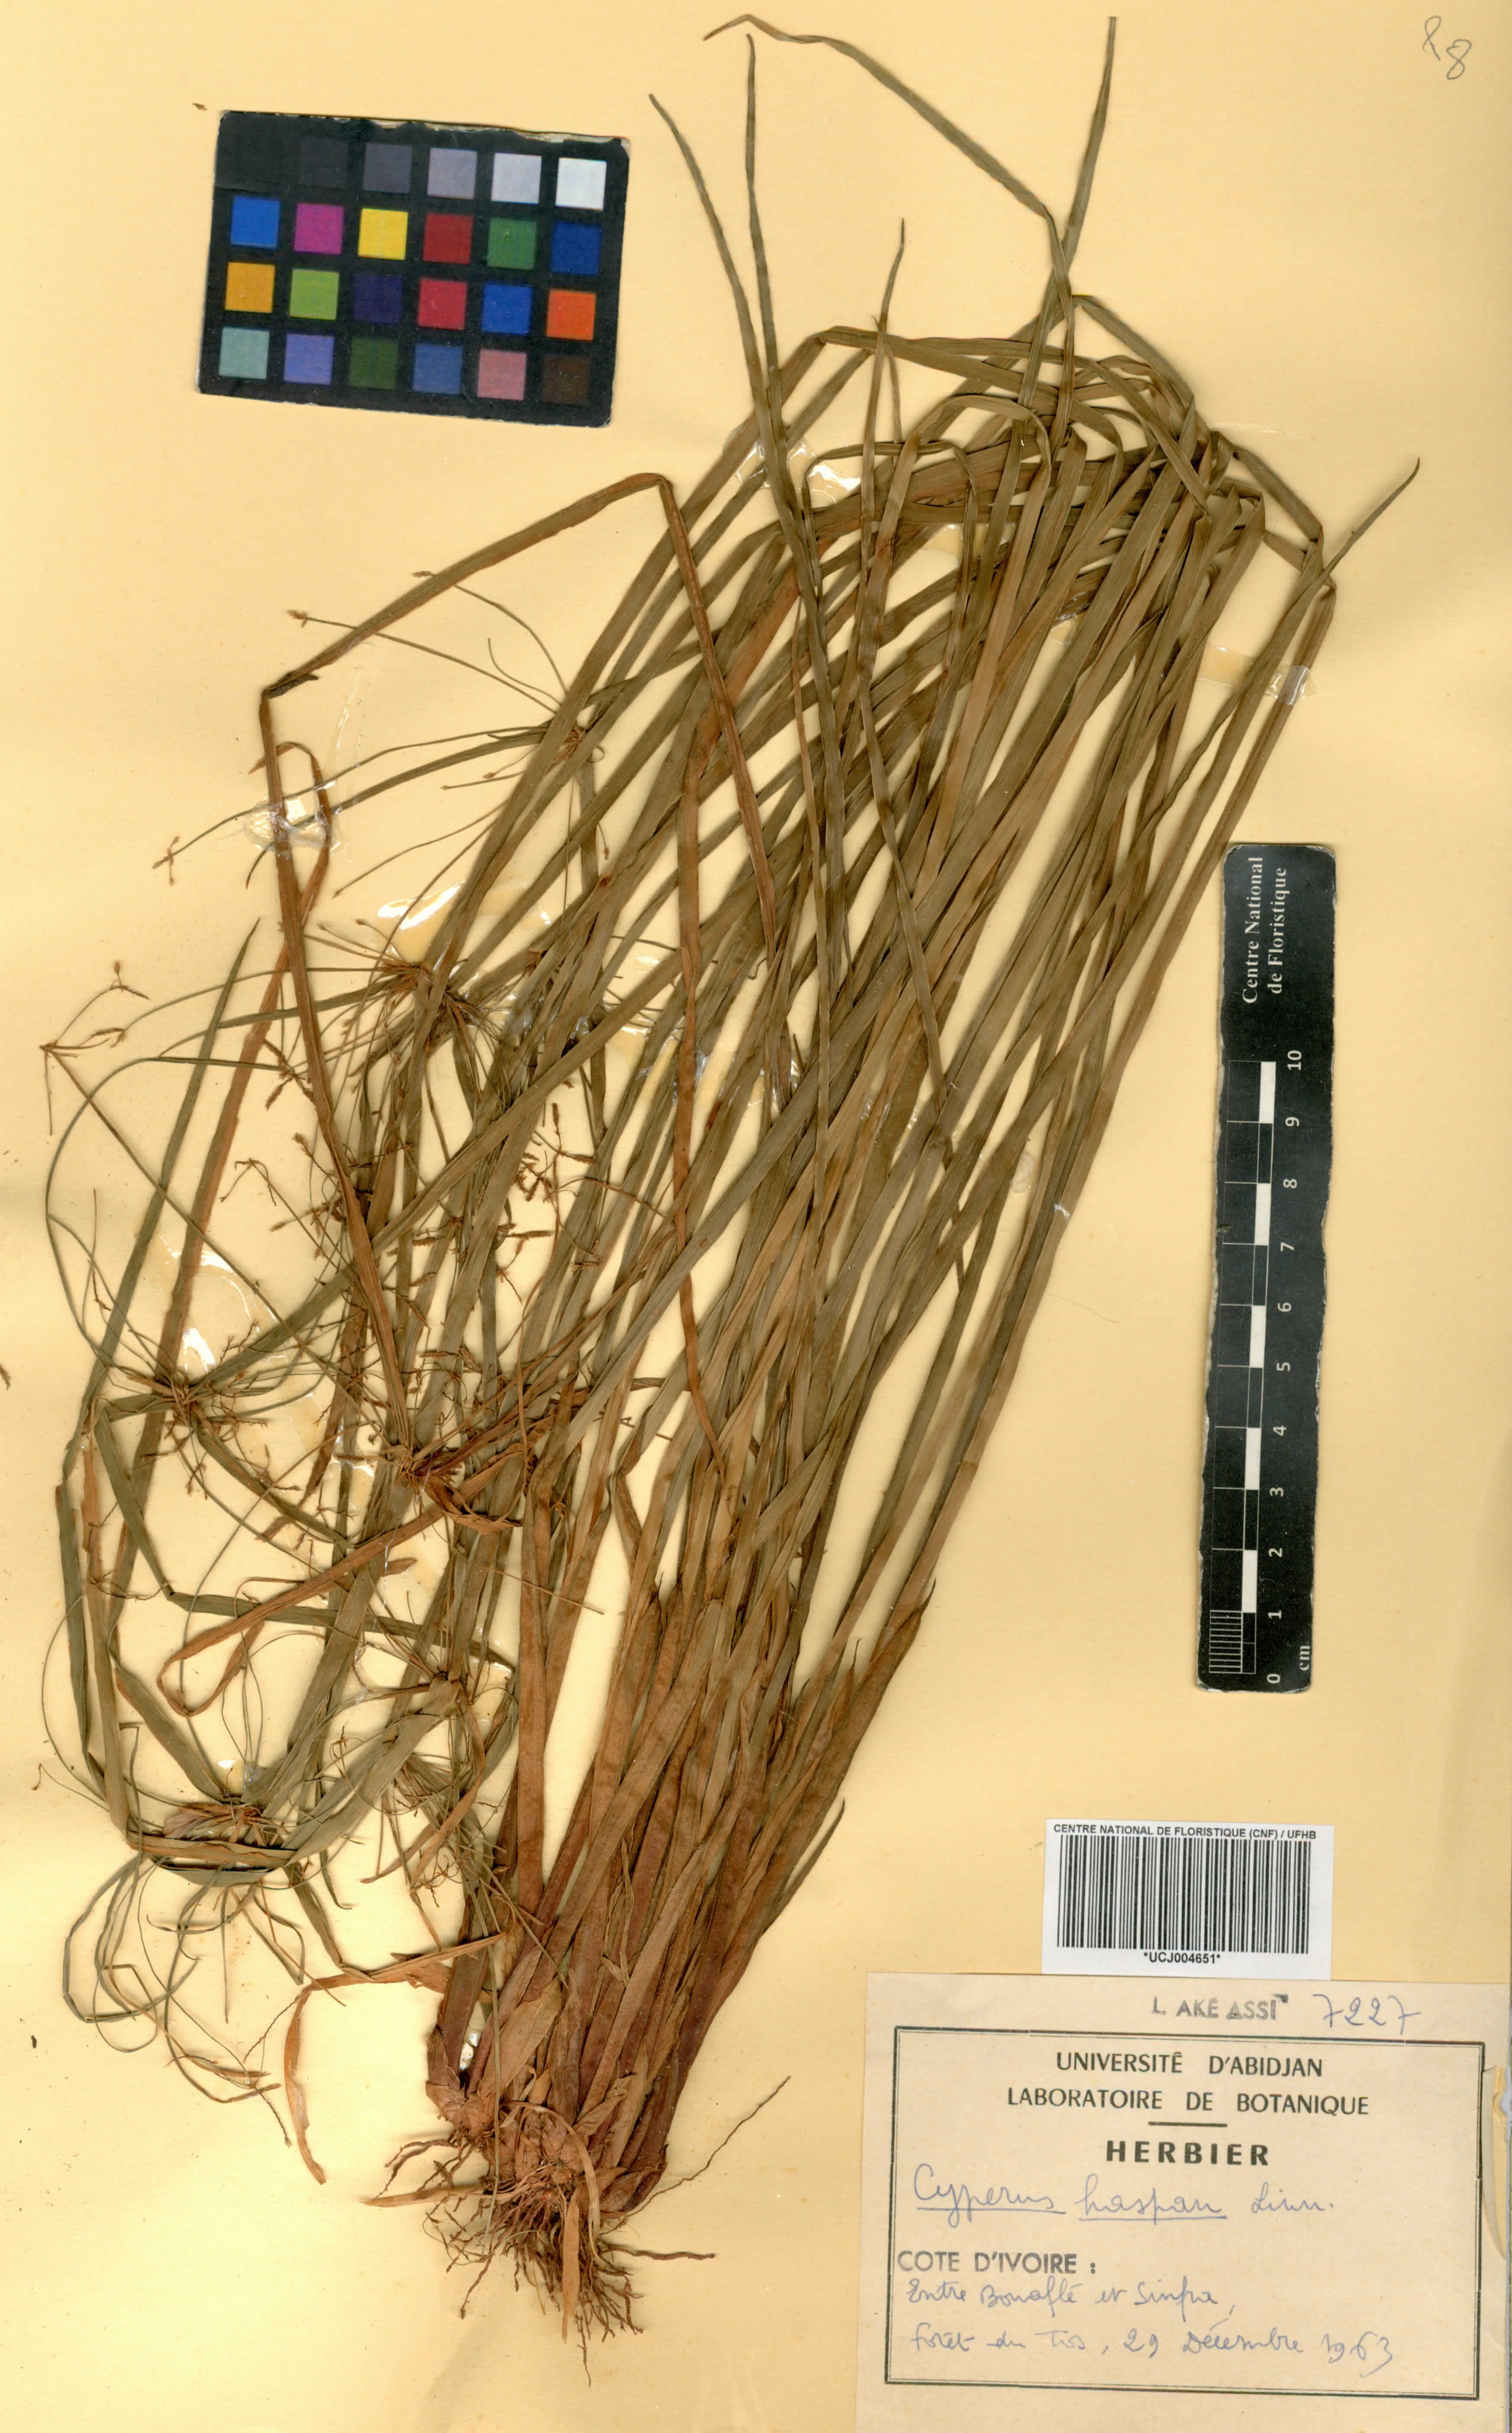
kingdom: Plantae
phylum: Tracheophyta
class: Liliopsida
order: Poales
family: Cyperaceae
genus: Cyperus
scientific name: Cyperus haspan
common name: Haspan flatsedge
